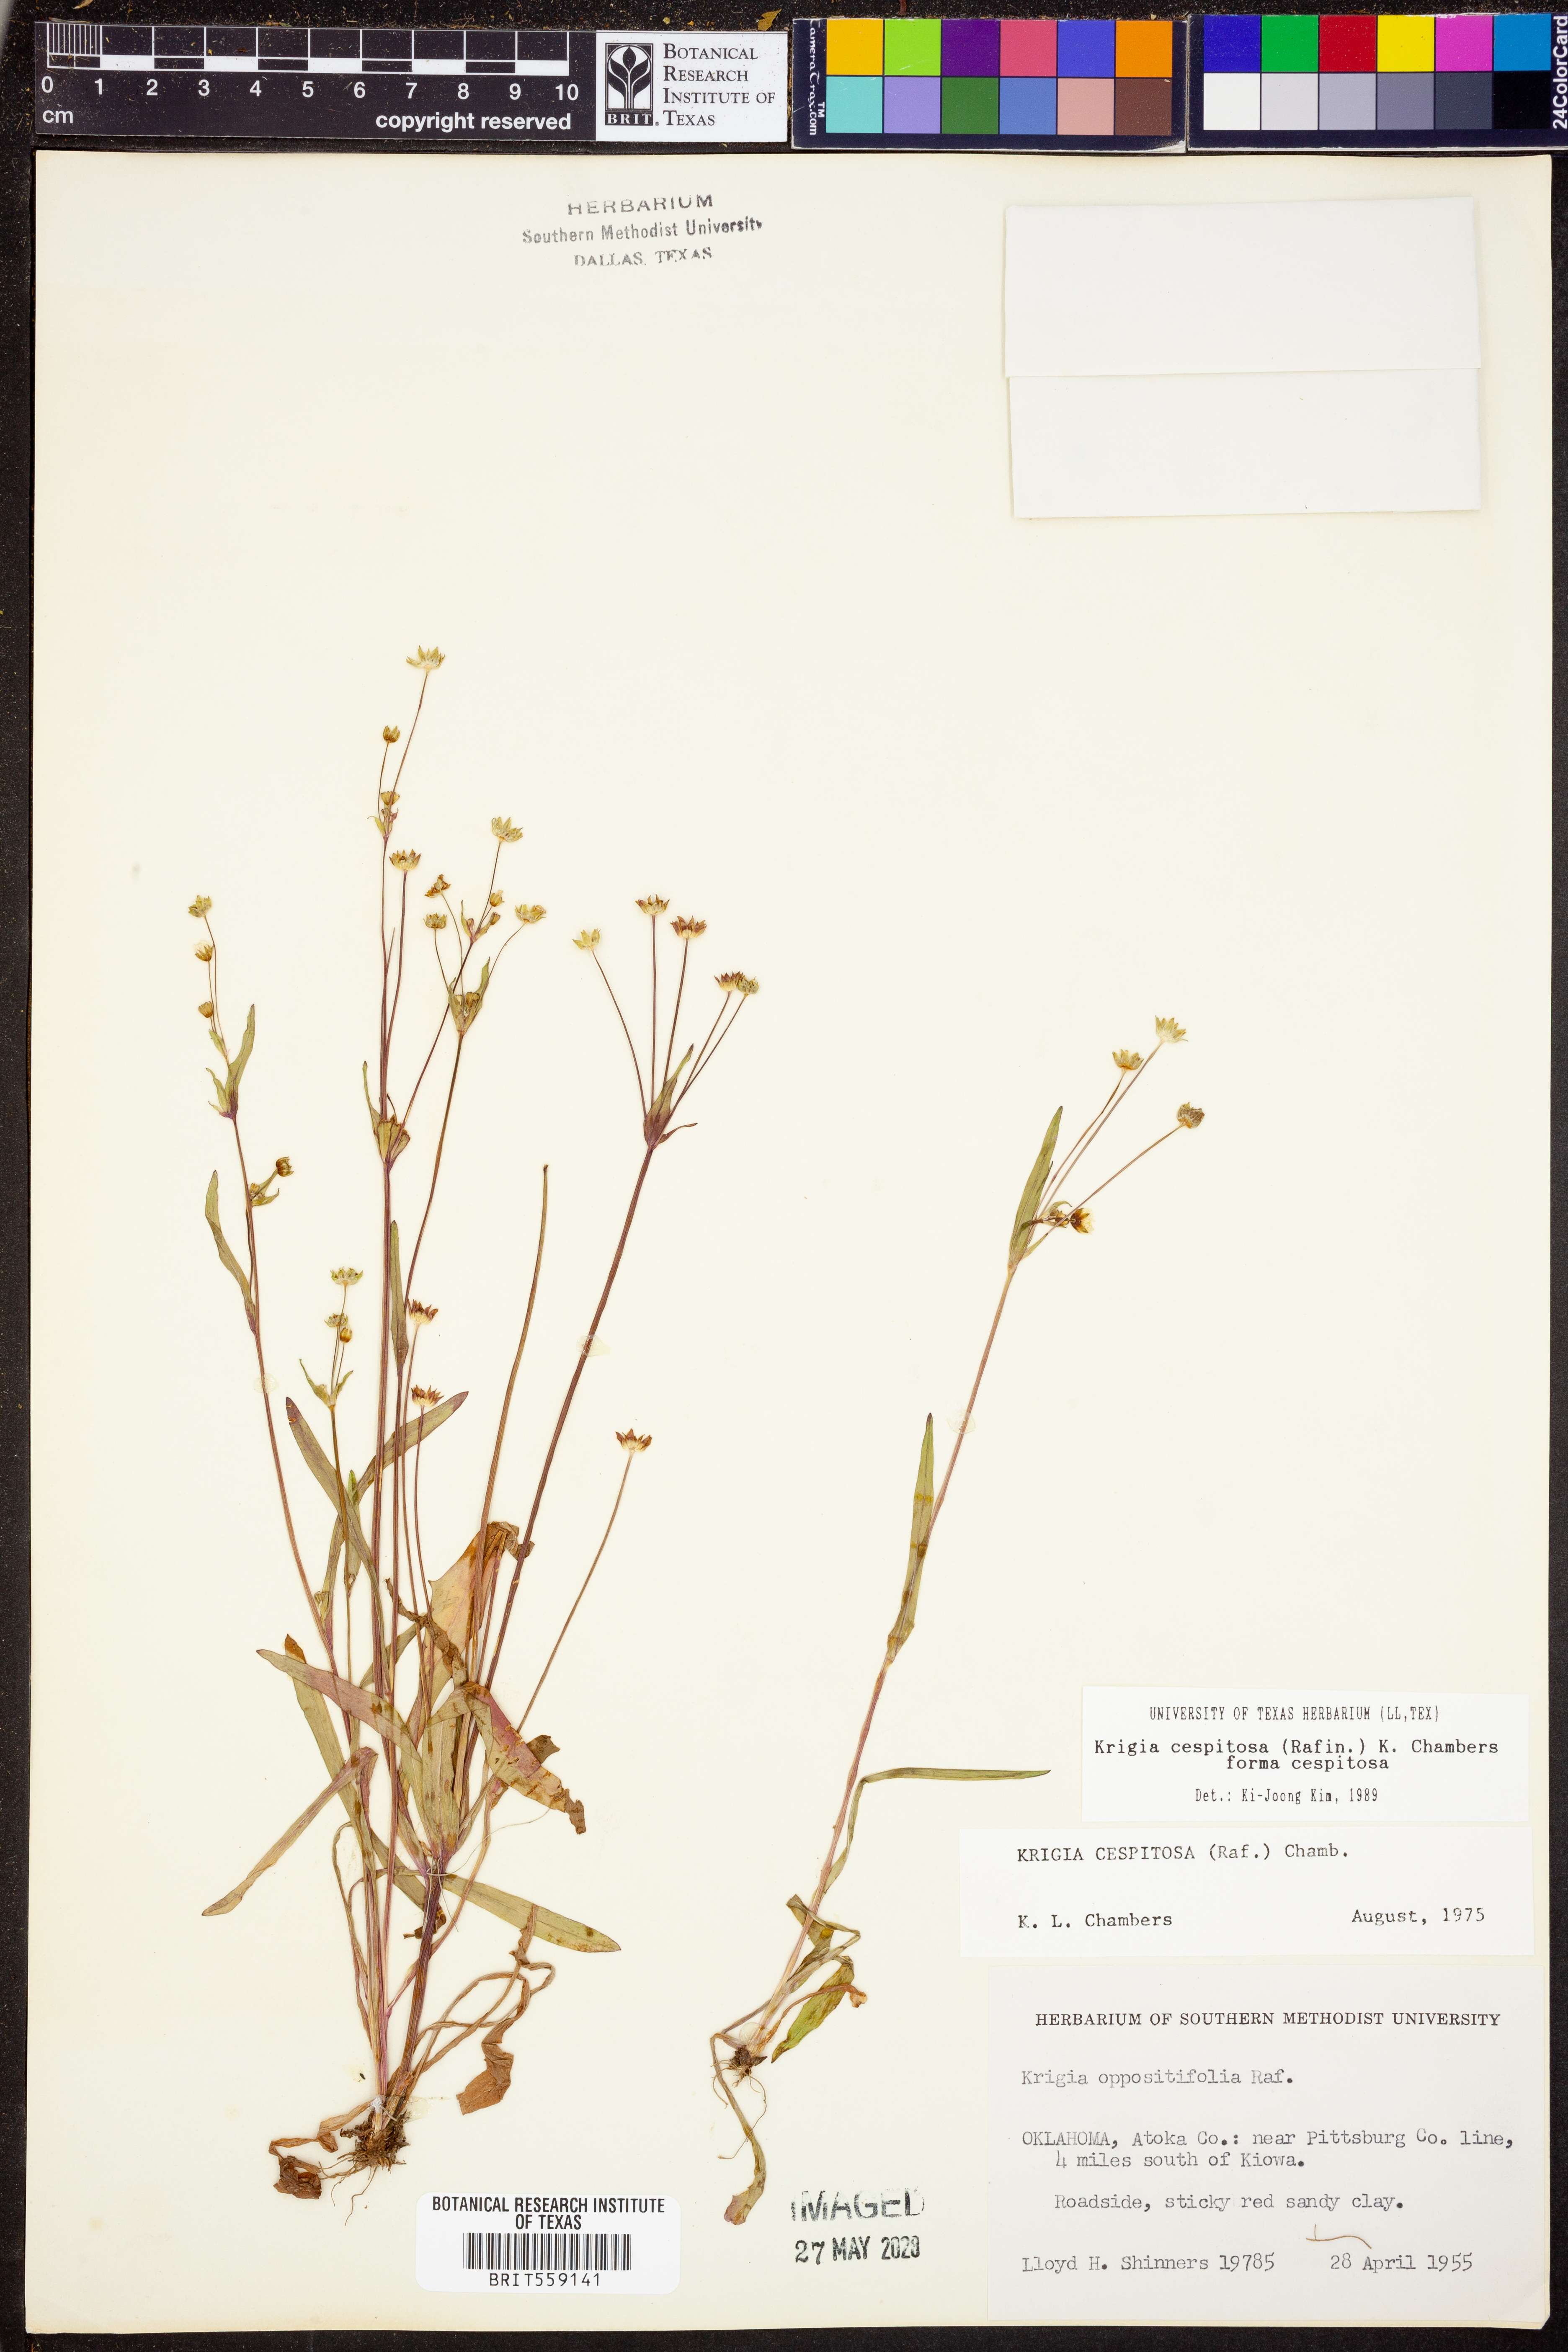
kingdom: Plantae
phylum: Tracheophyta
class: Magnoliopsida
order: Asterales
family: Asteraceae
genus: Krigia
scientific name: Krigia cespitosa
